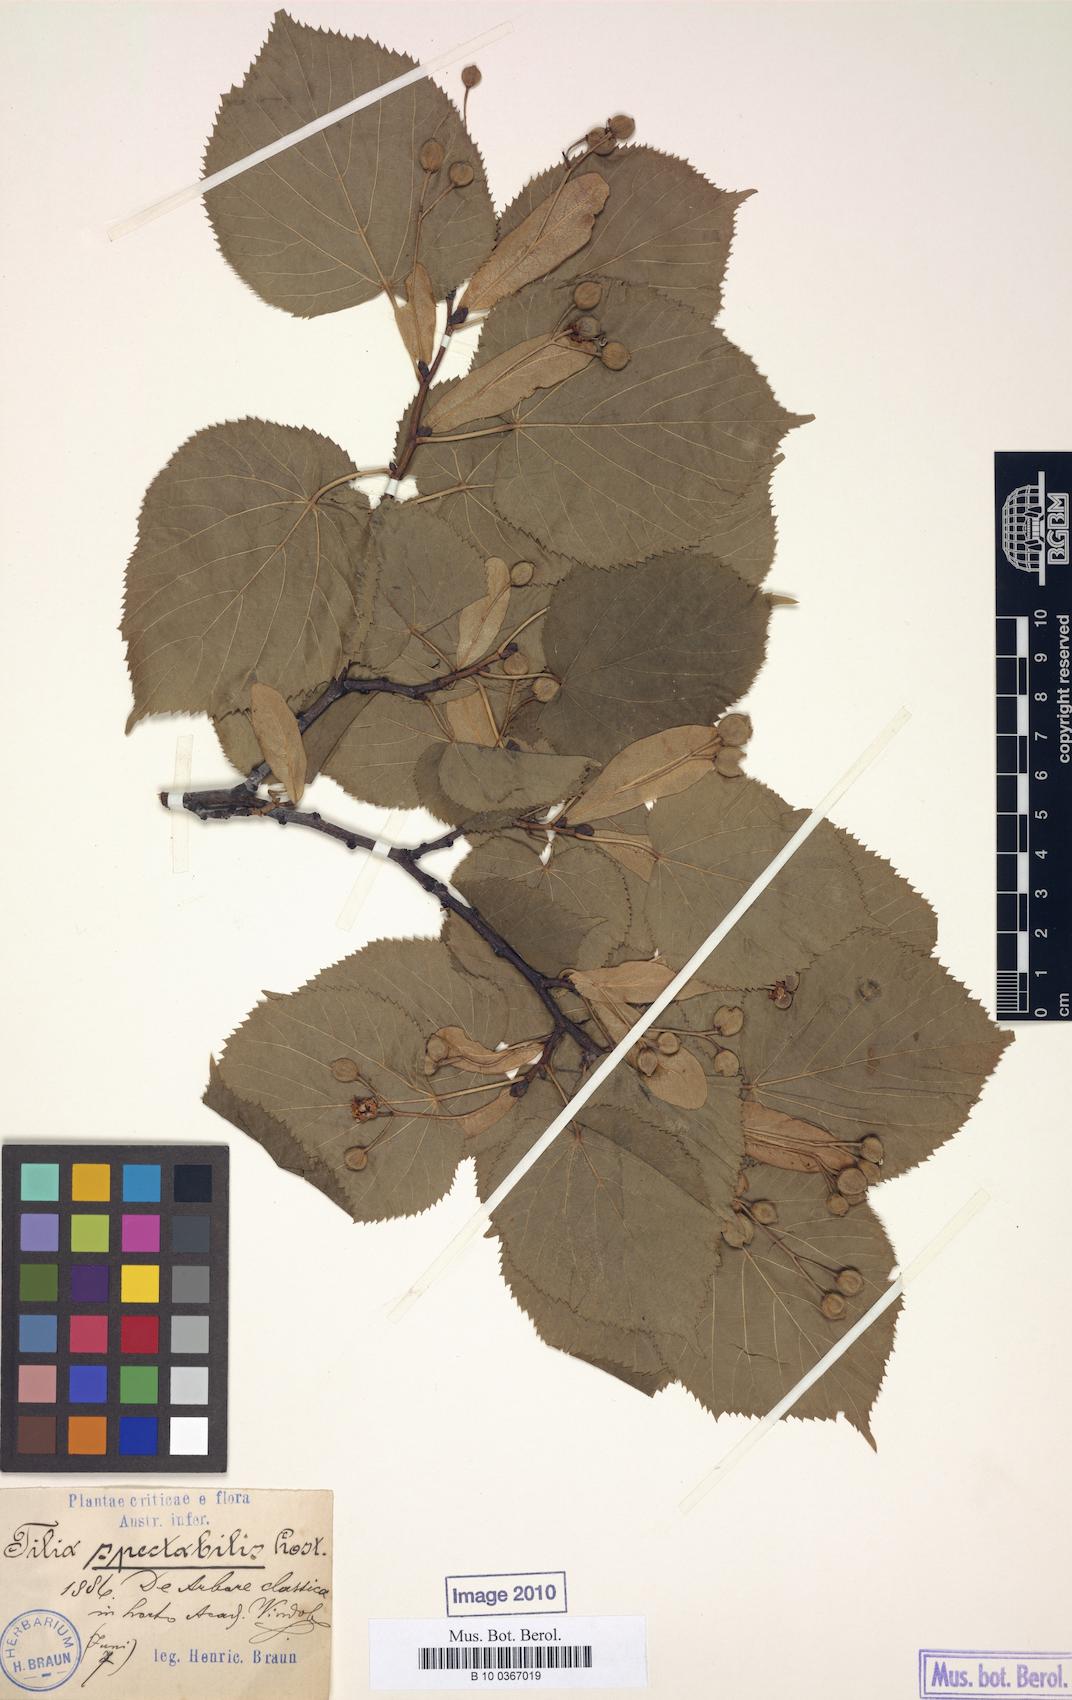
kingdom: Plantae
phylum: Tracheophyta
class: Magnoliopsida
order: Malvales
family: Malvaceae
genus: Tilia
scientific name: Tilia platyphyllos
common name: Large-leaved lime
